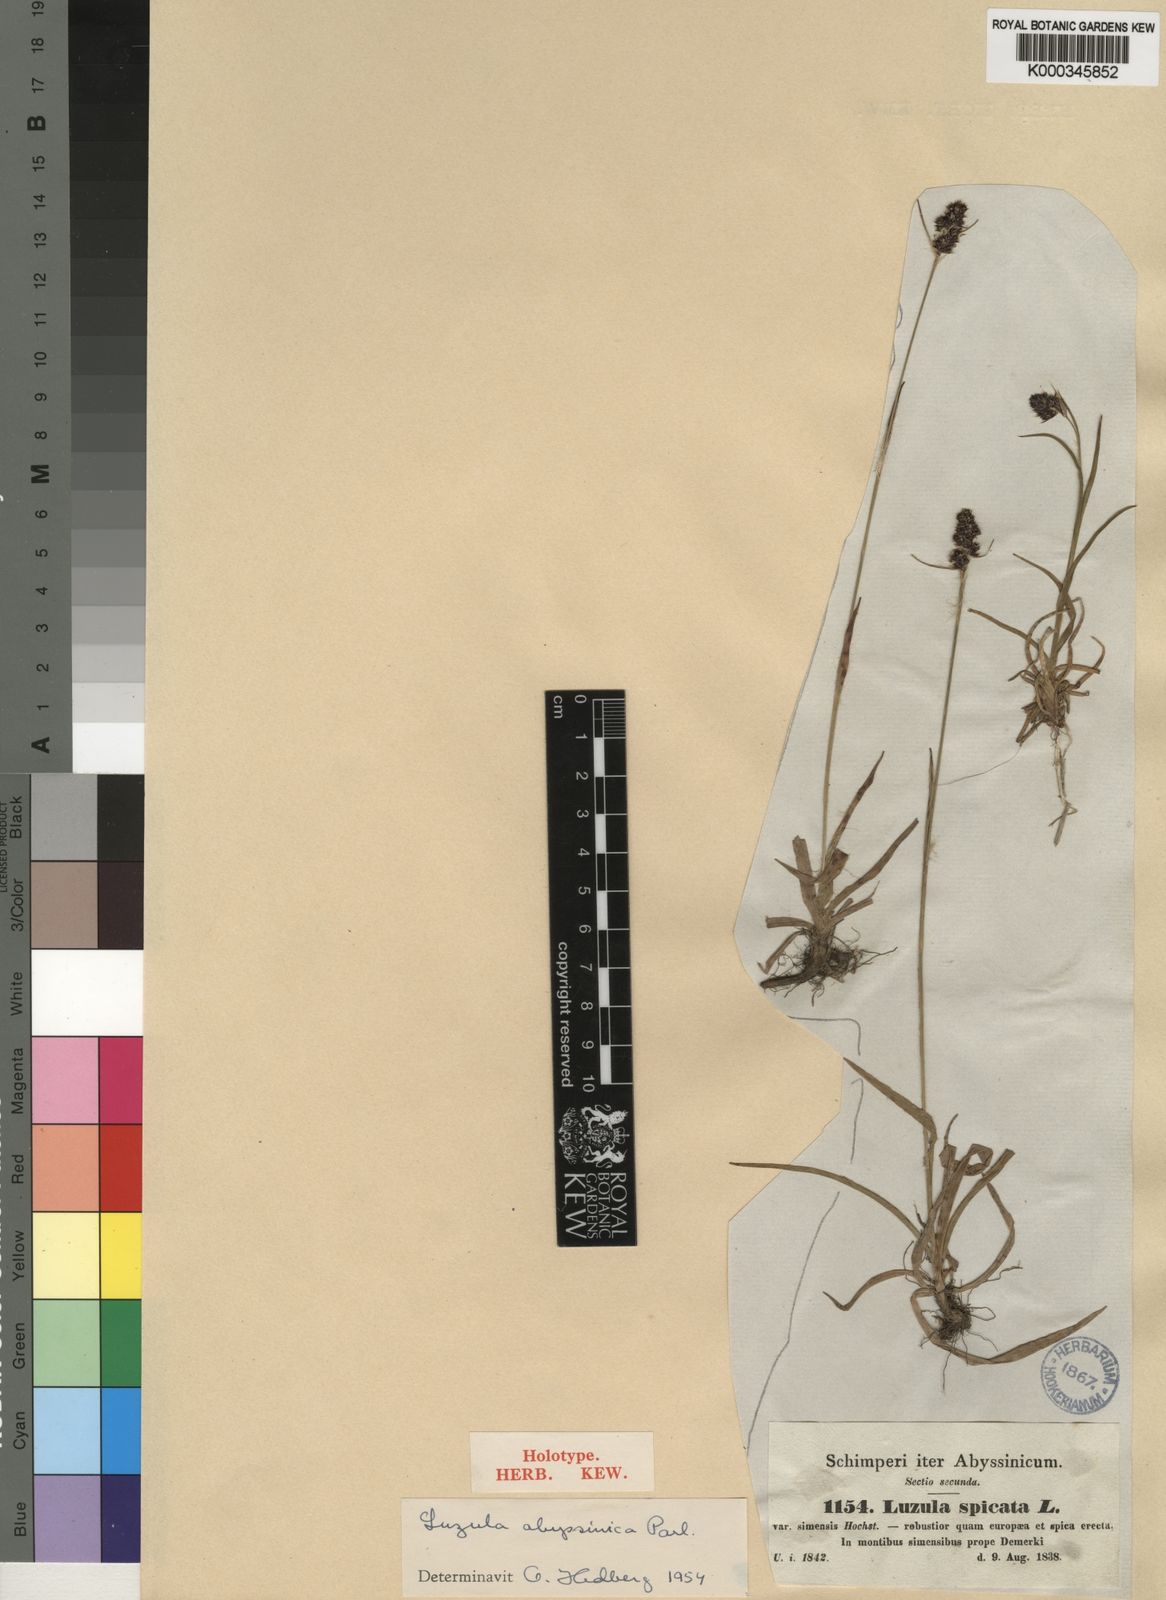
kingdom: Plantae
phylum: Tracheophyta
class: Liliopsida
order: Poales
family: Juncaceae
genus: Luzula
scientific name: Luzula abyssinica
